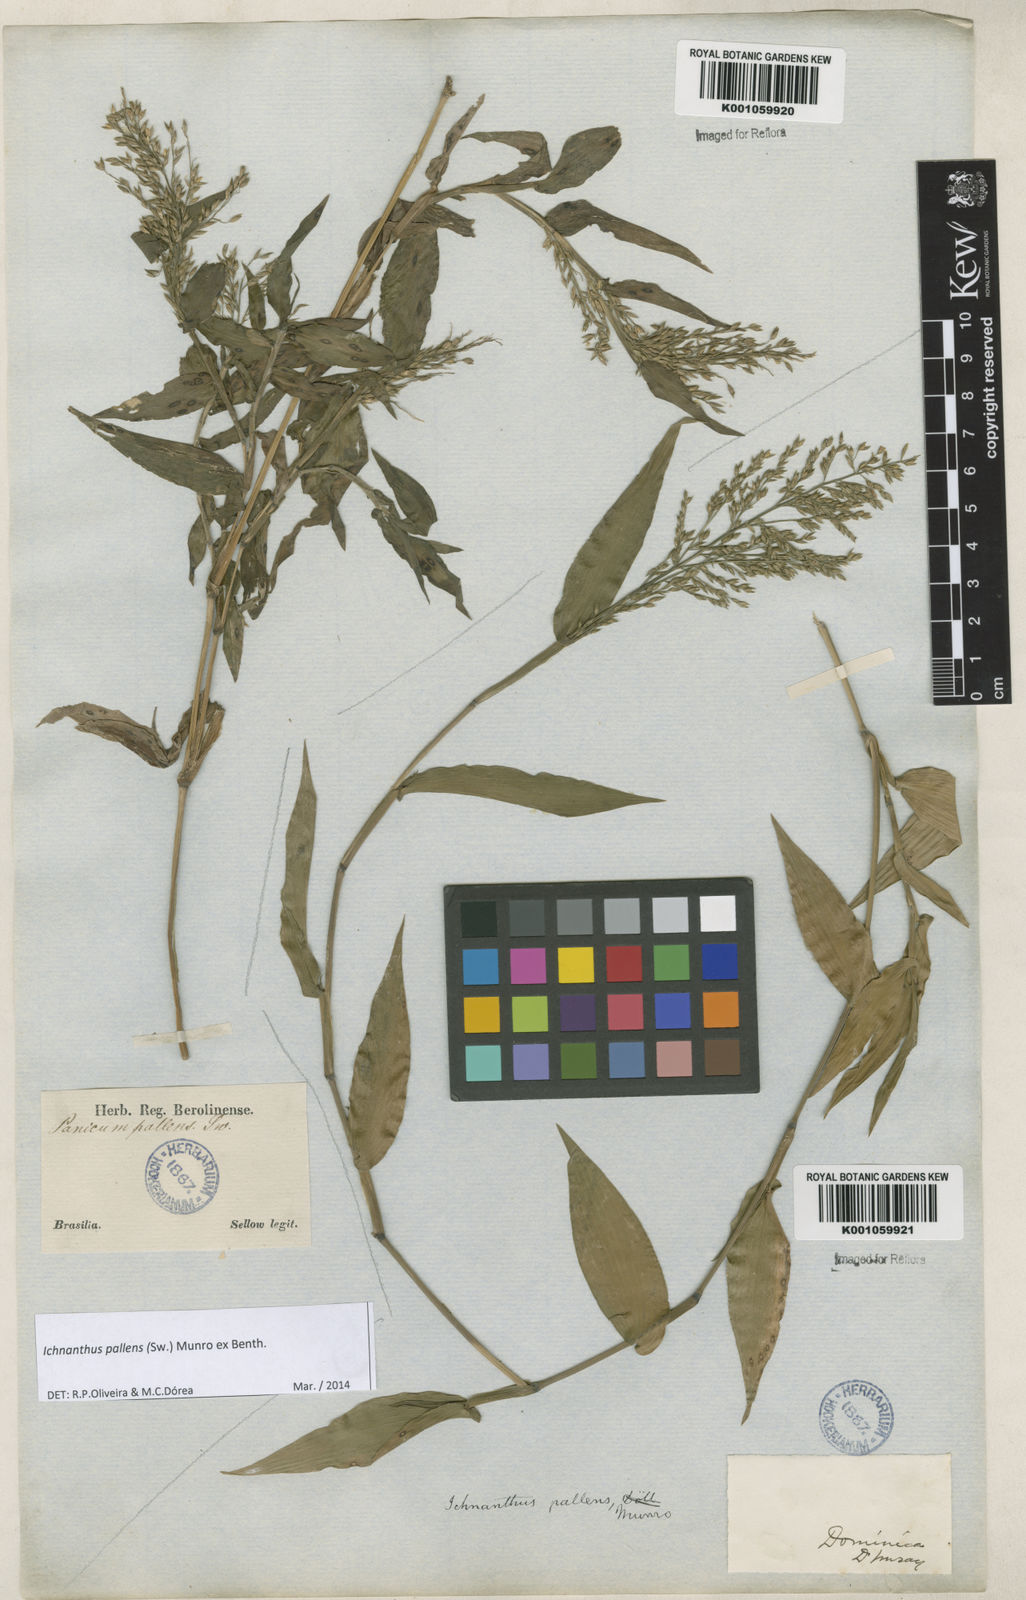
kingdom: Plantae
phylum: Tracheophyta
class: Liliopsida
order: Poales
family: Poaceae
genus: Ichnanthus
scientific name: Ichnanthus pallens
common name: Water grass
